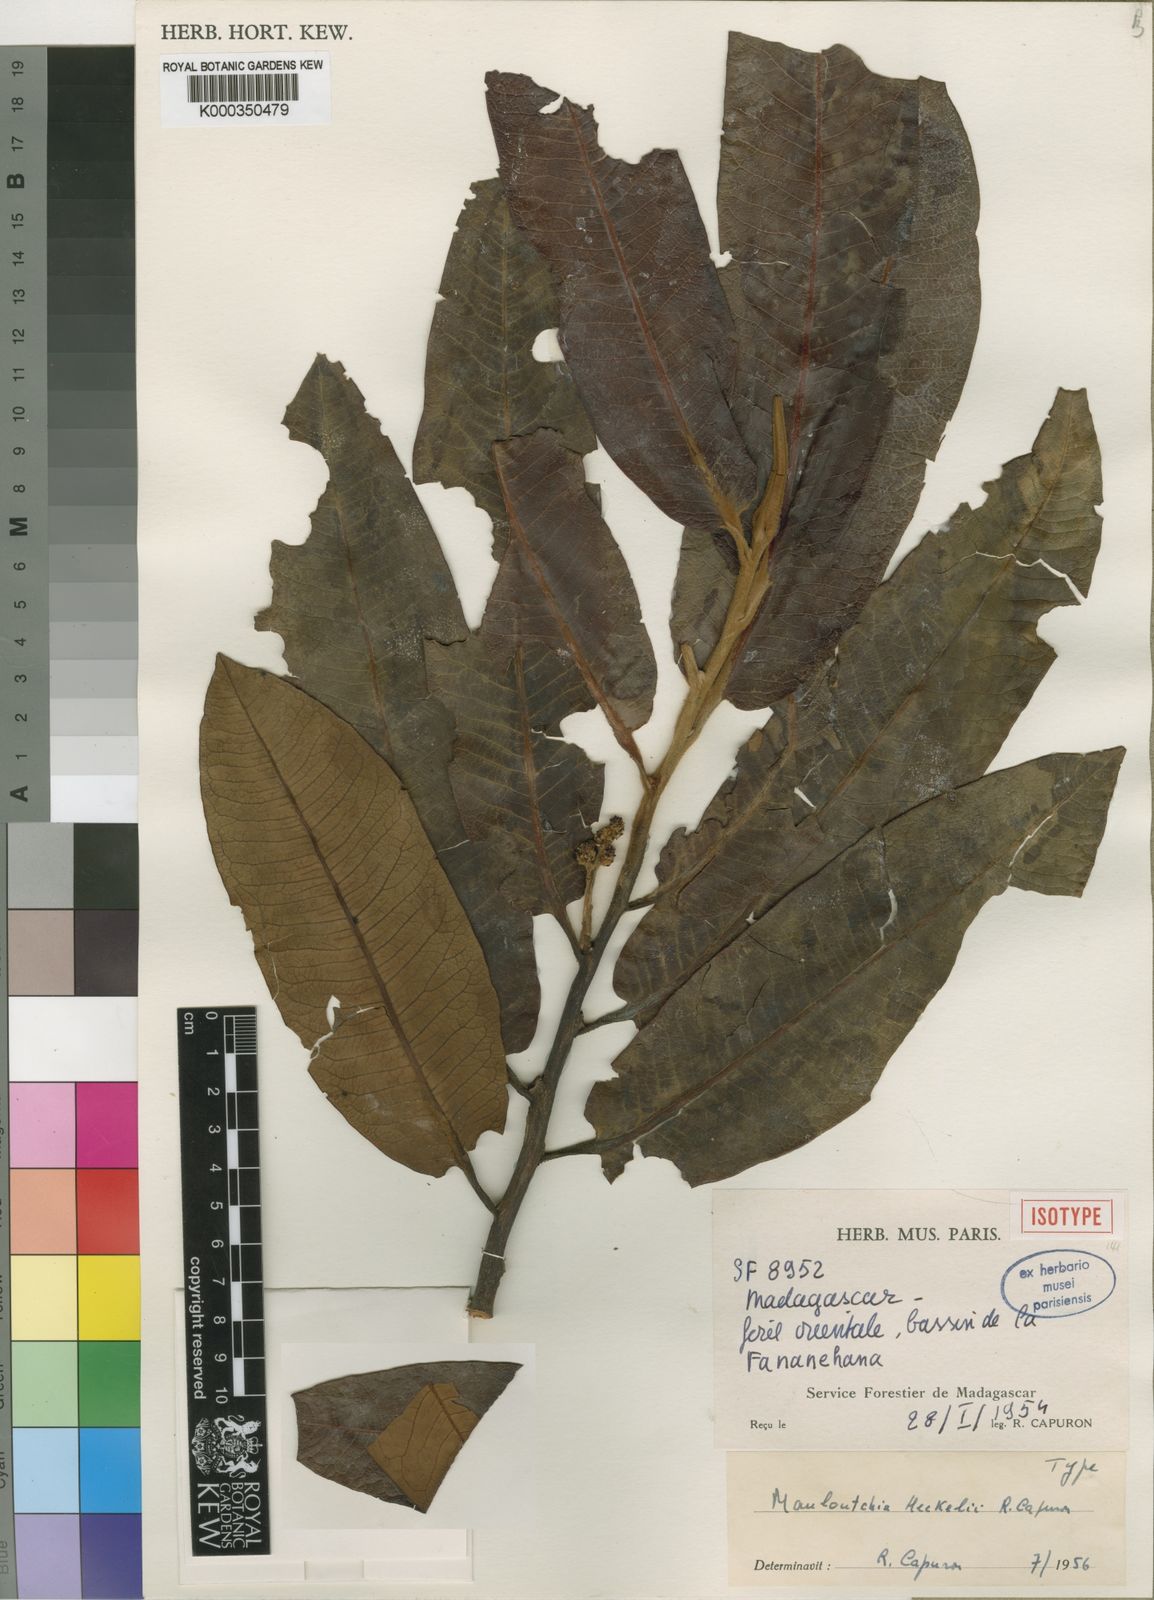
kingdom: Plantae
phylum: Tracheophyta
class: Magnoliopsida
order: Magnoliales
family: Myristicaceae
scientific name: Myristicaceae
